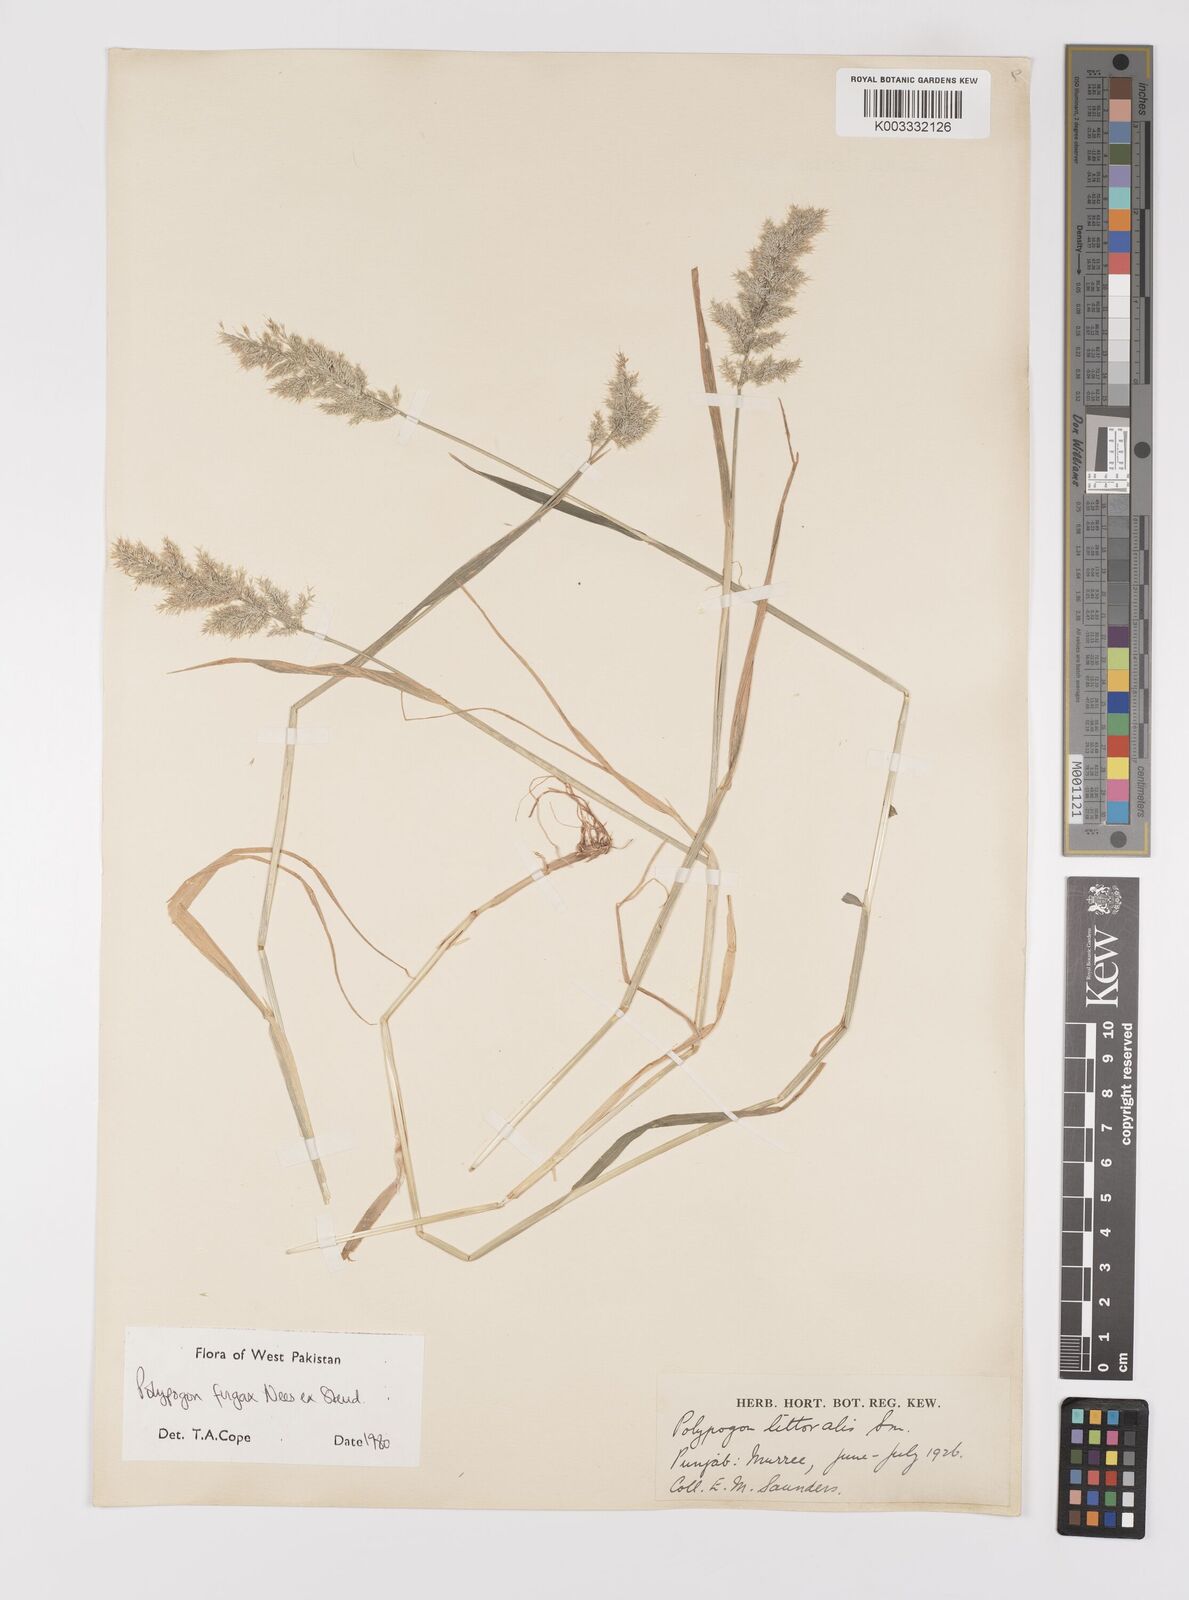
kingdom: Plantae
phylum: Tracheophyta
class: Liliopsida
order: Poales
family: Poaceae
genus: Polypogon
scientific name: Polypogon fugax
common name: Asia minor bluegrass
